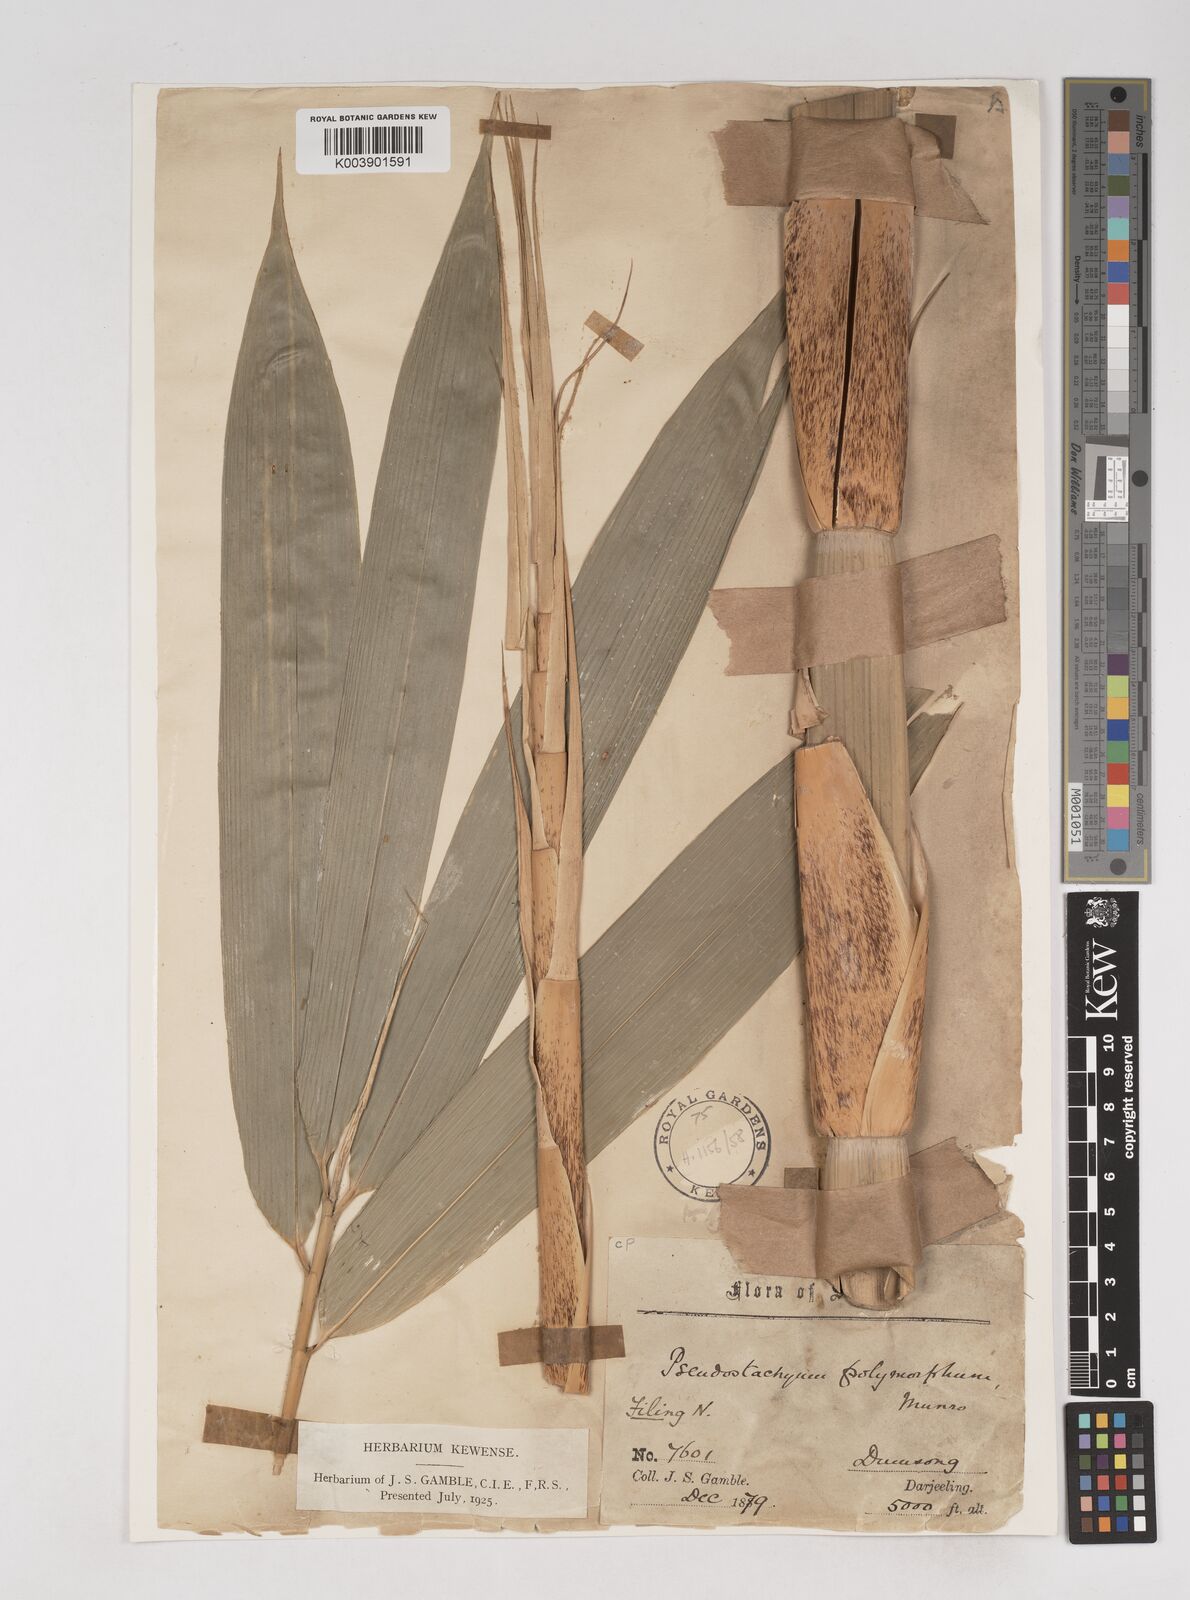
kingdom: Plantae
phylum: Tracheophyta
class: Liliopsida
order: Poales
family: Poaceae
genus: Pseudostachyum
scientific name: Pseudostachyum polymorphum
